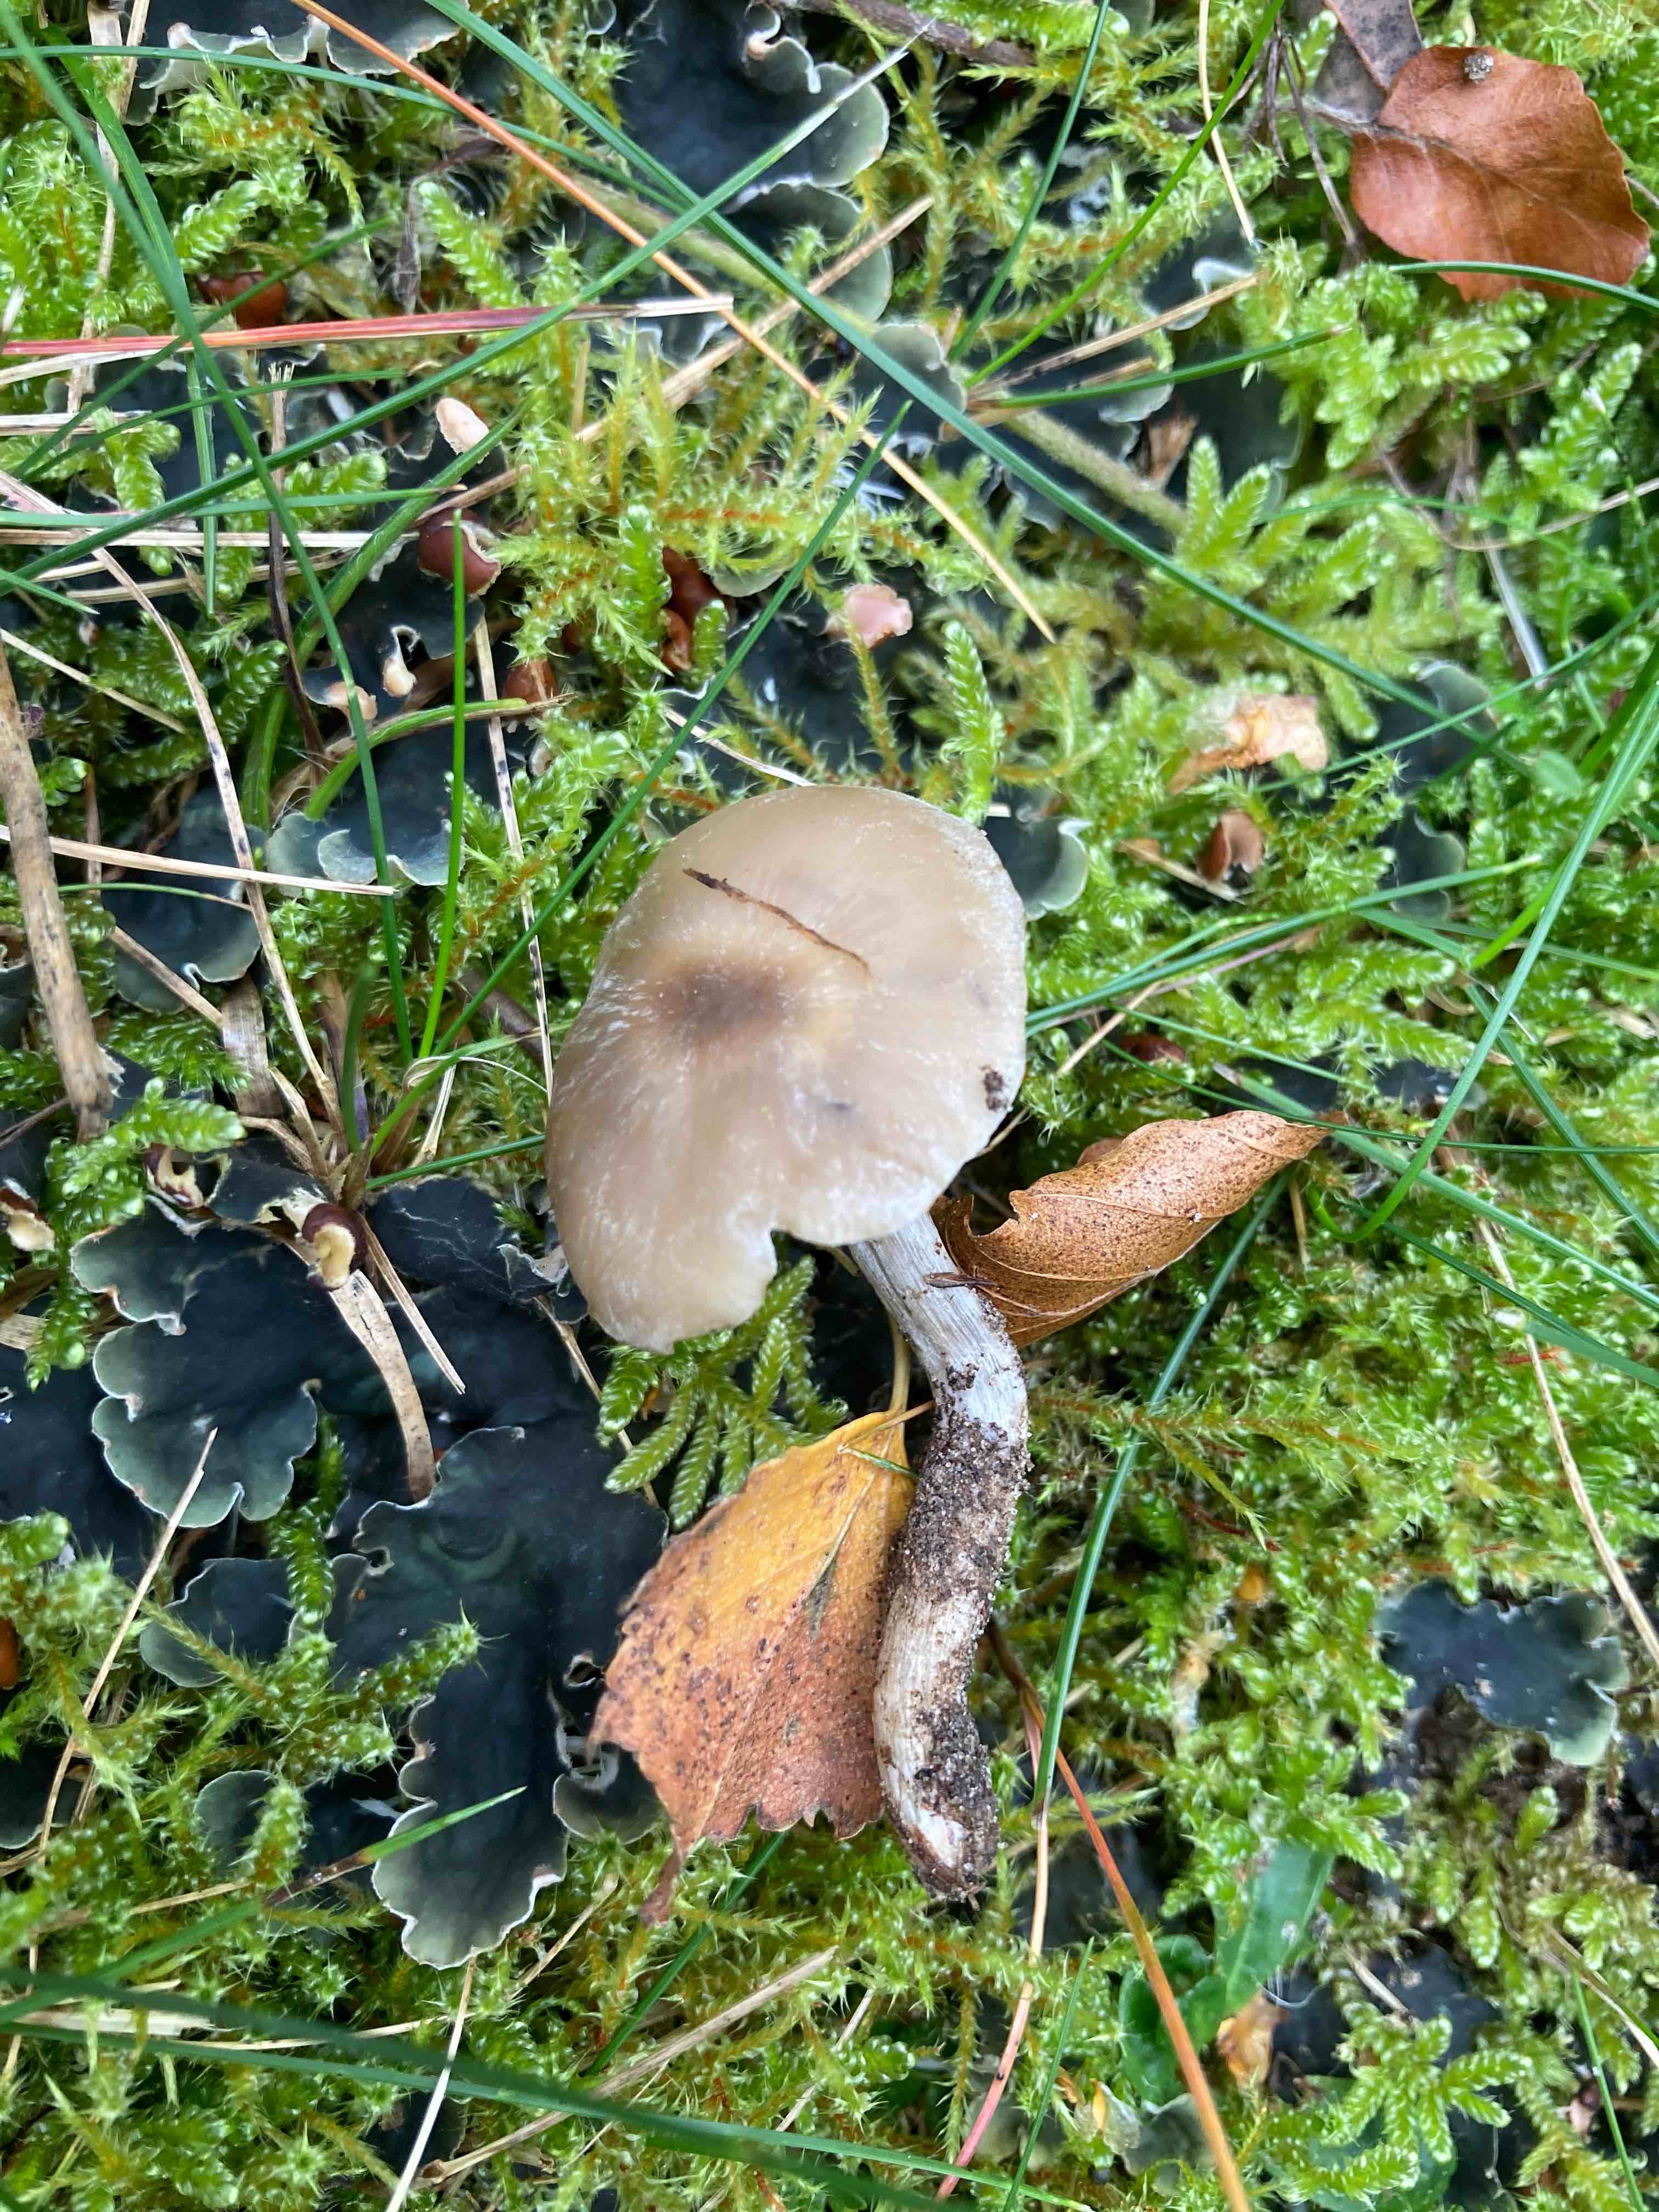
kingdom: Fungi
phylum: Basidiomycota
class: Agaricomycetes
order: Agaricales
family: Lyophyllaceae
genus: Lyophyllum
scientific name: Lyophyllum
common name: gråblad
